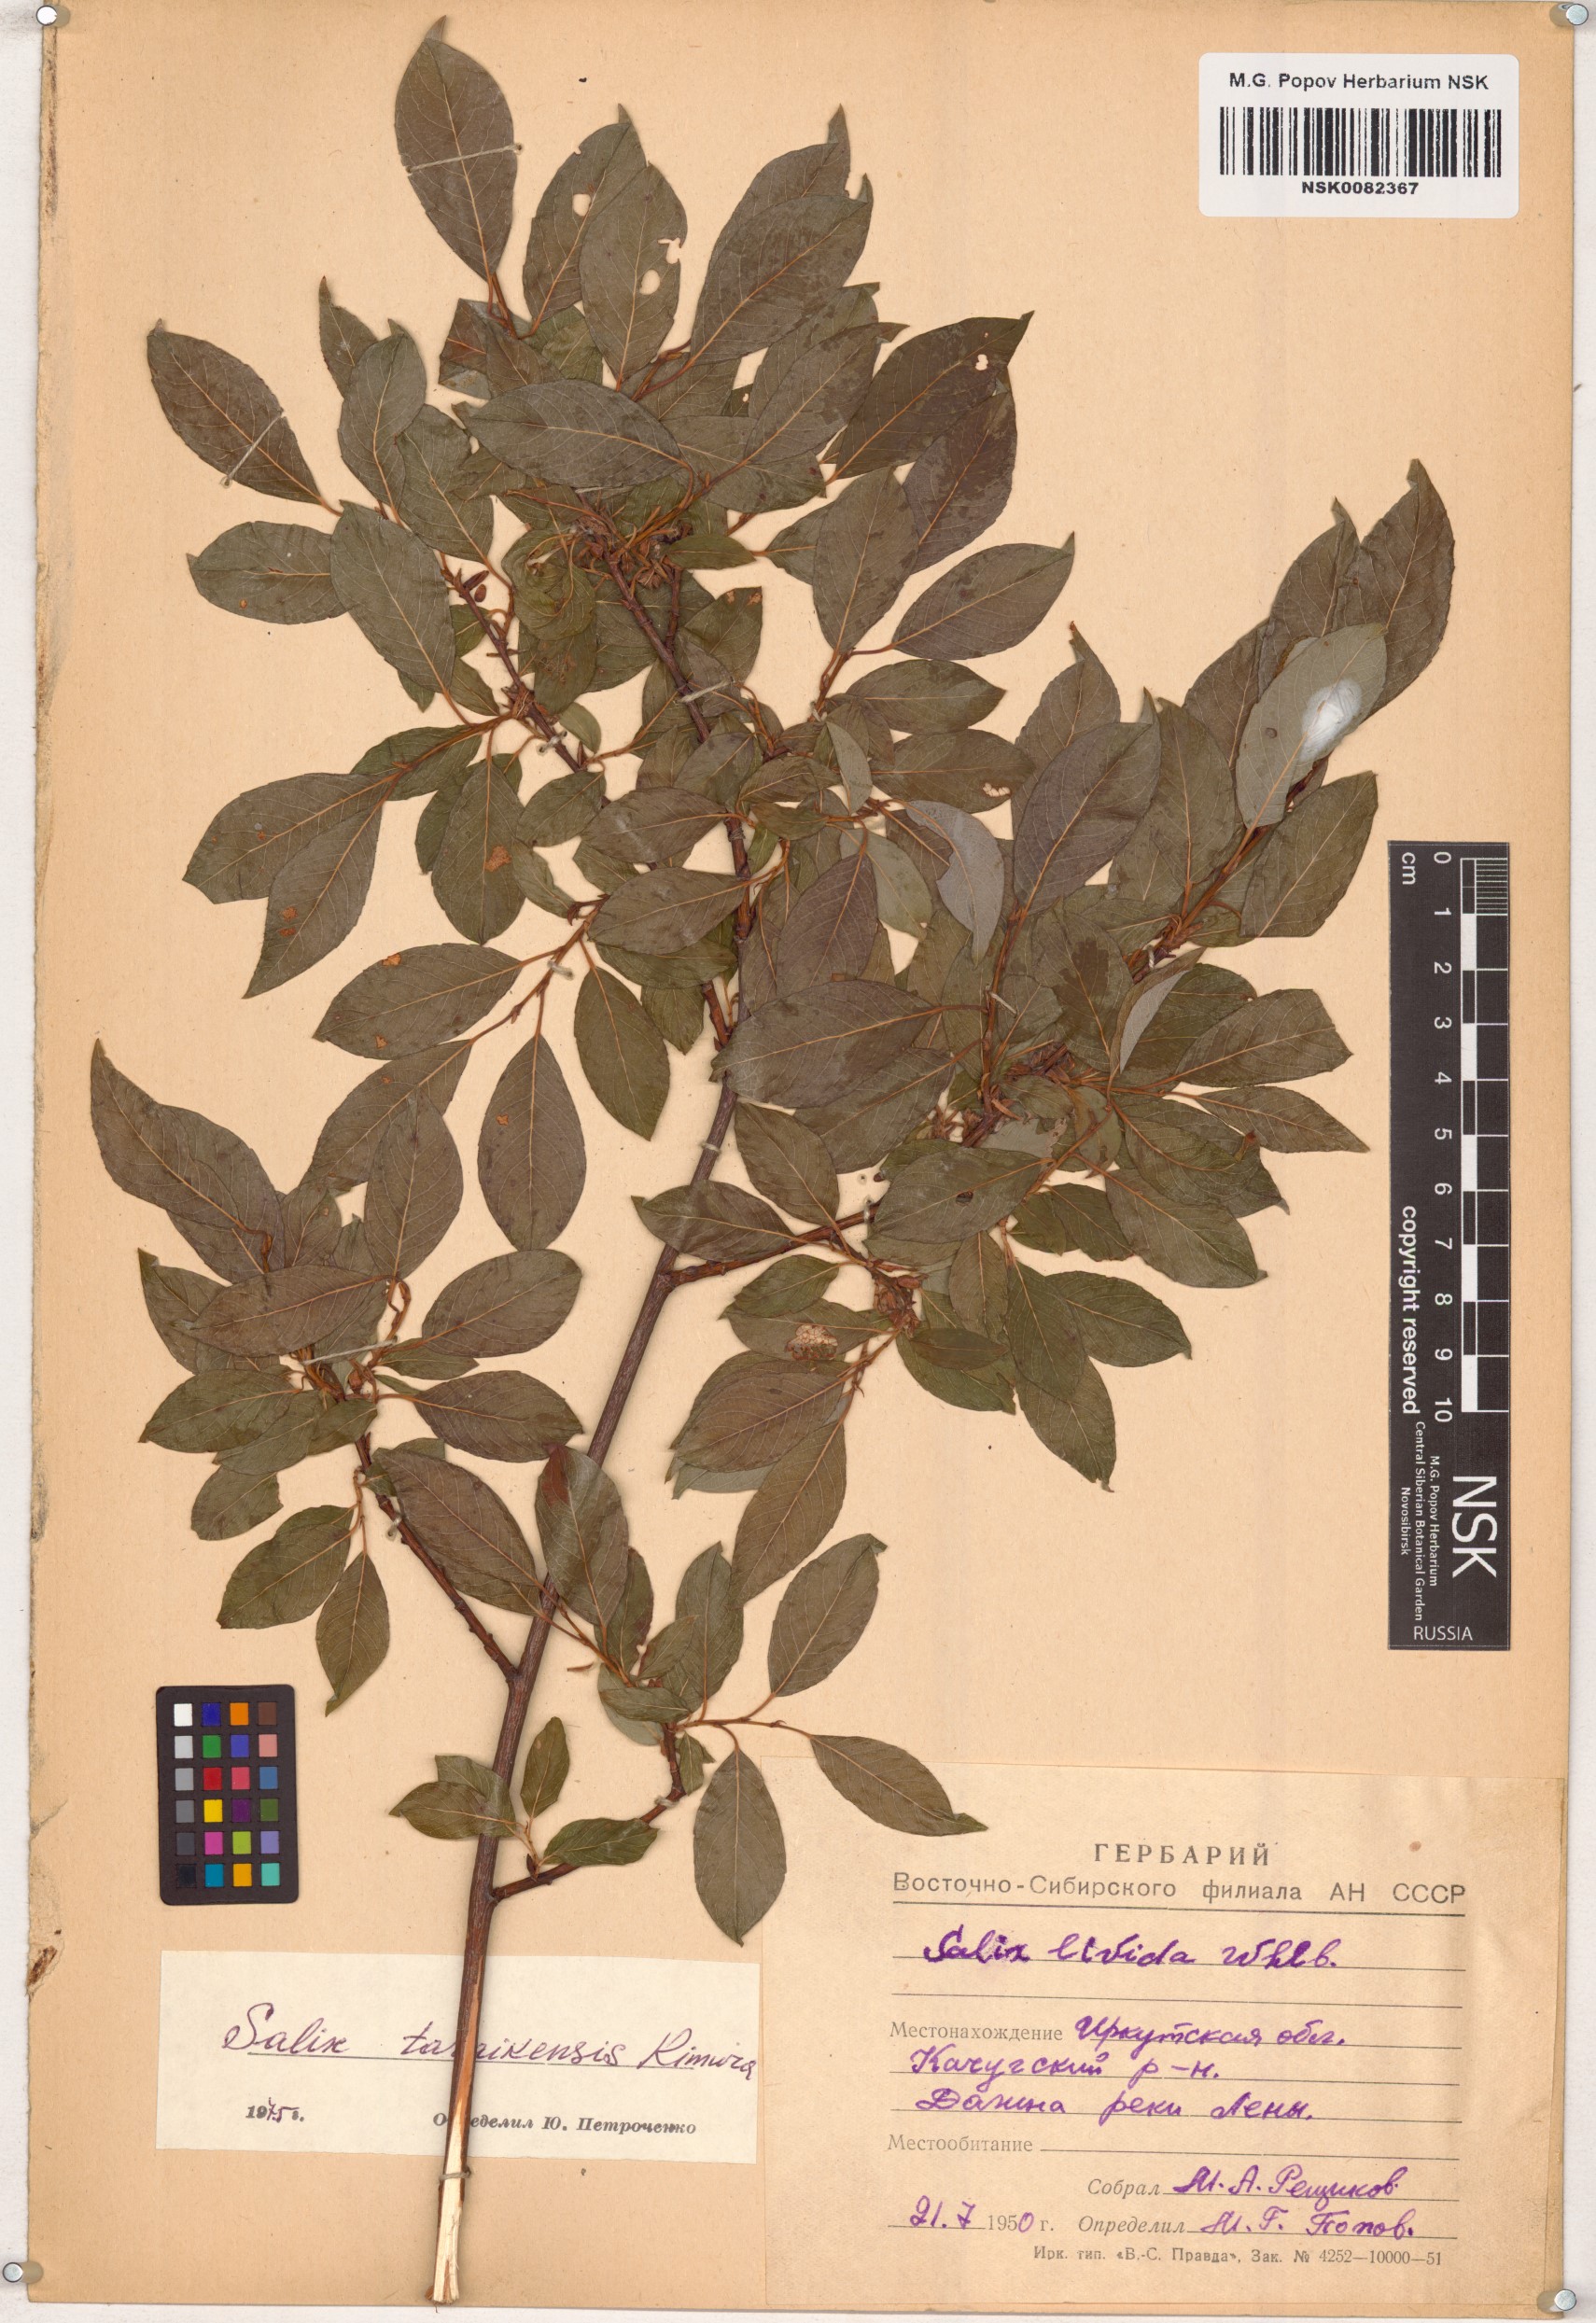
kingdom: Plantae
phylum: Tracheophyta
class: Magnoliopsida
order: Malpighiales
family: Salicaceae
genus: Salix
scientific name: Salix taraikensis
